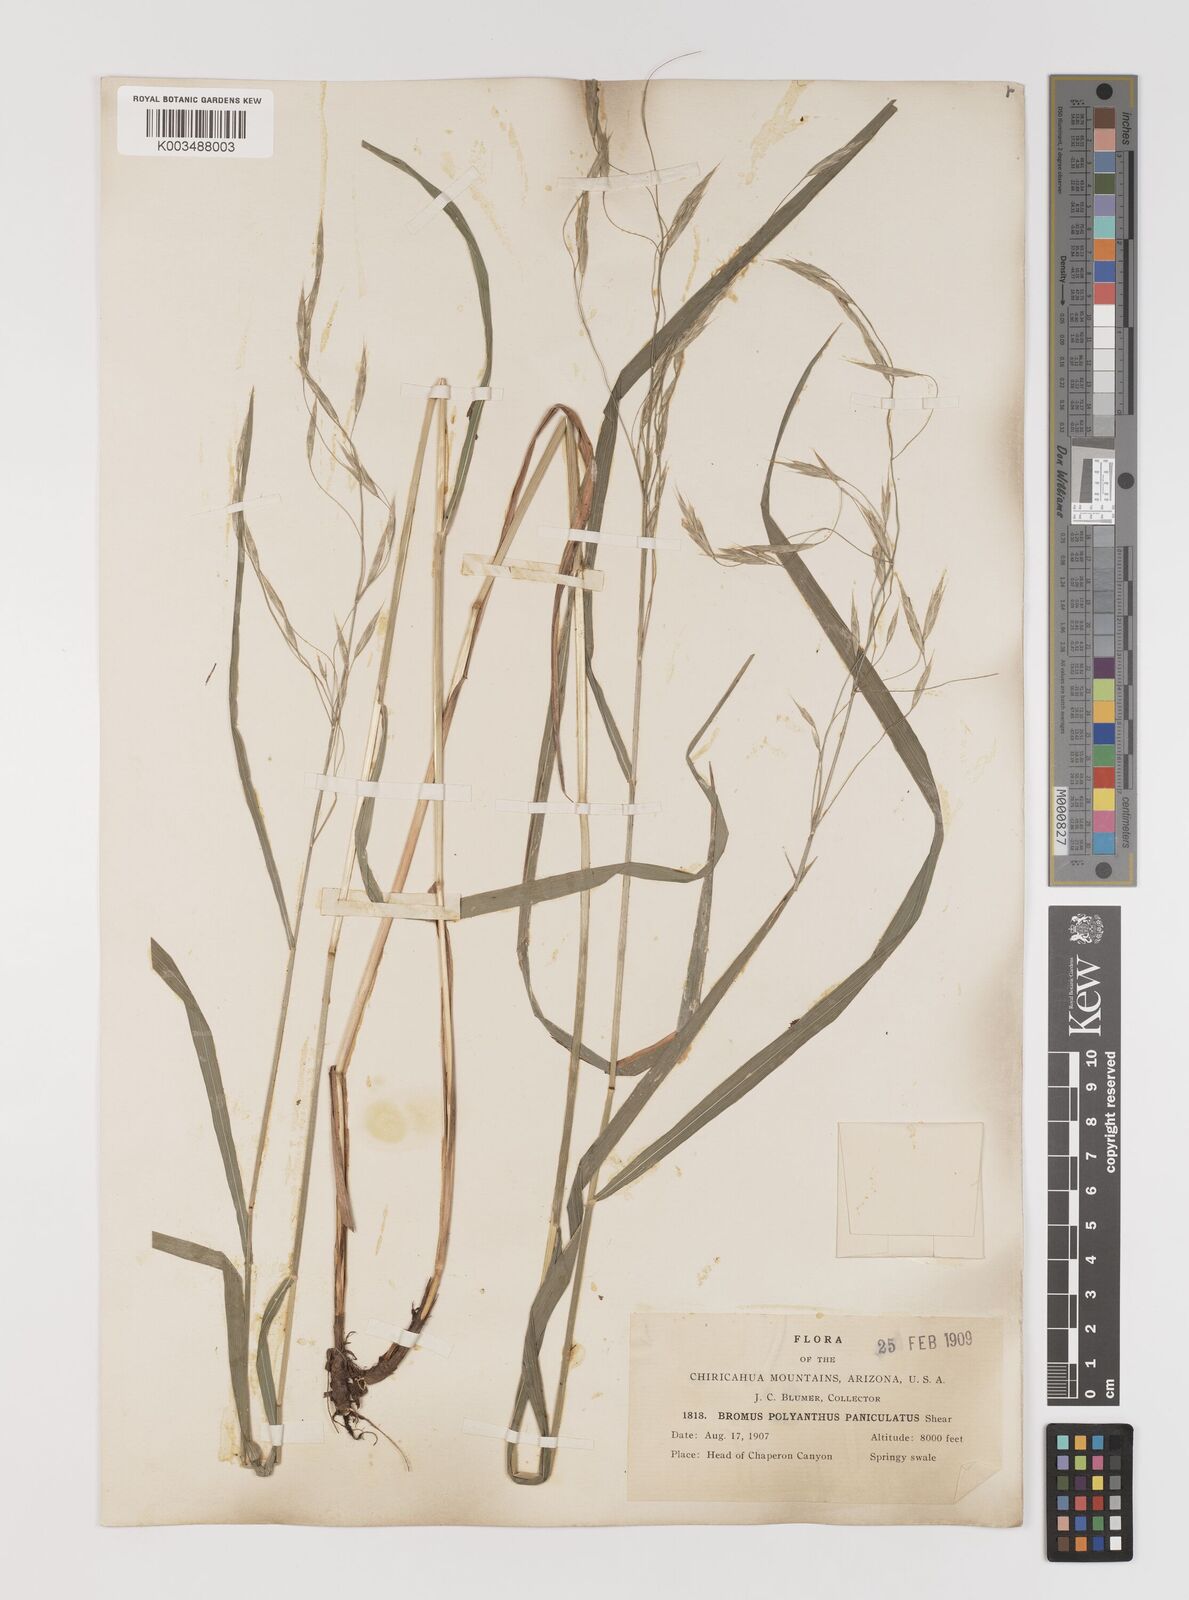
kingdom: Plantae
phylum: Tracheophyta
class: Liliopsida
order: Poales
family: Poaceae
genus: Bromus
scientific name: Bromus polyanthus
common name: Great basin brome
